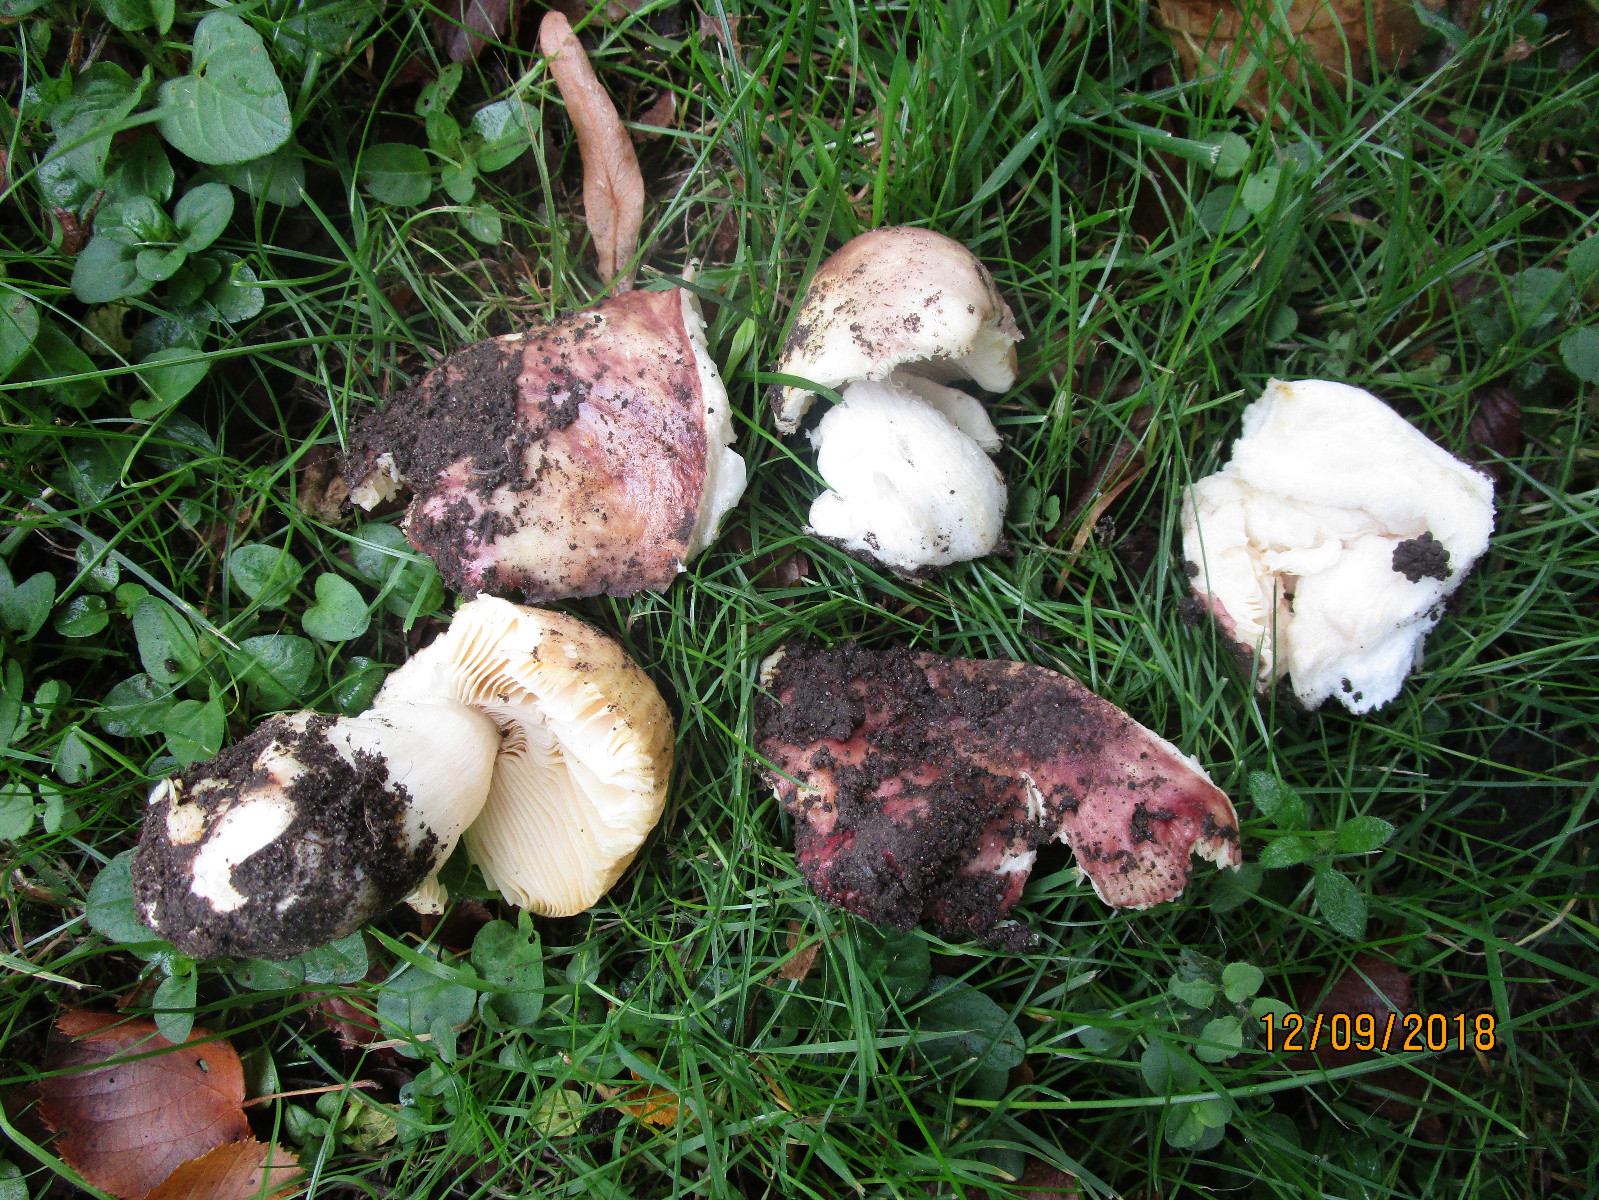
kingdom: Fungi
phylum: Basidiomycota
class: Agaricomycetes
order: Russulales
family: Russulaceae
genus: Russula
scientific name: Russula carpini
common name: avnbøg-skørhat
